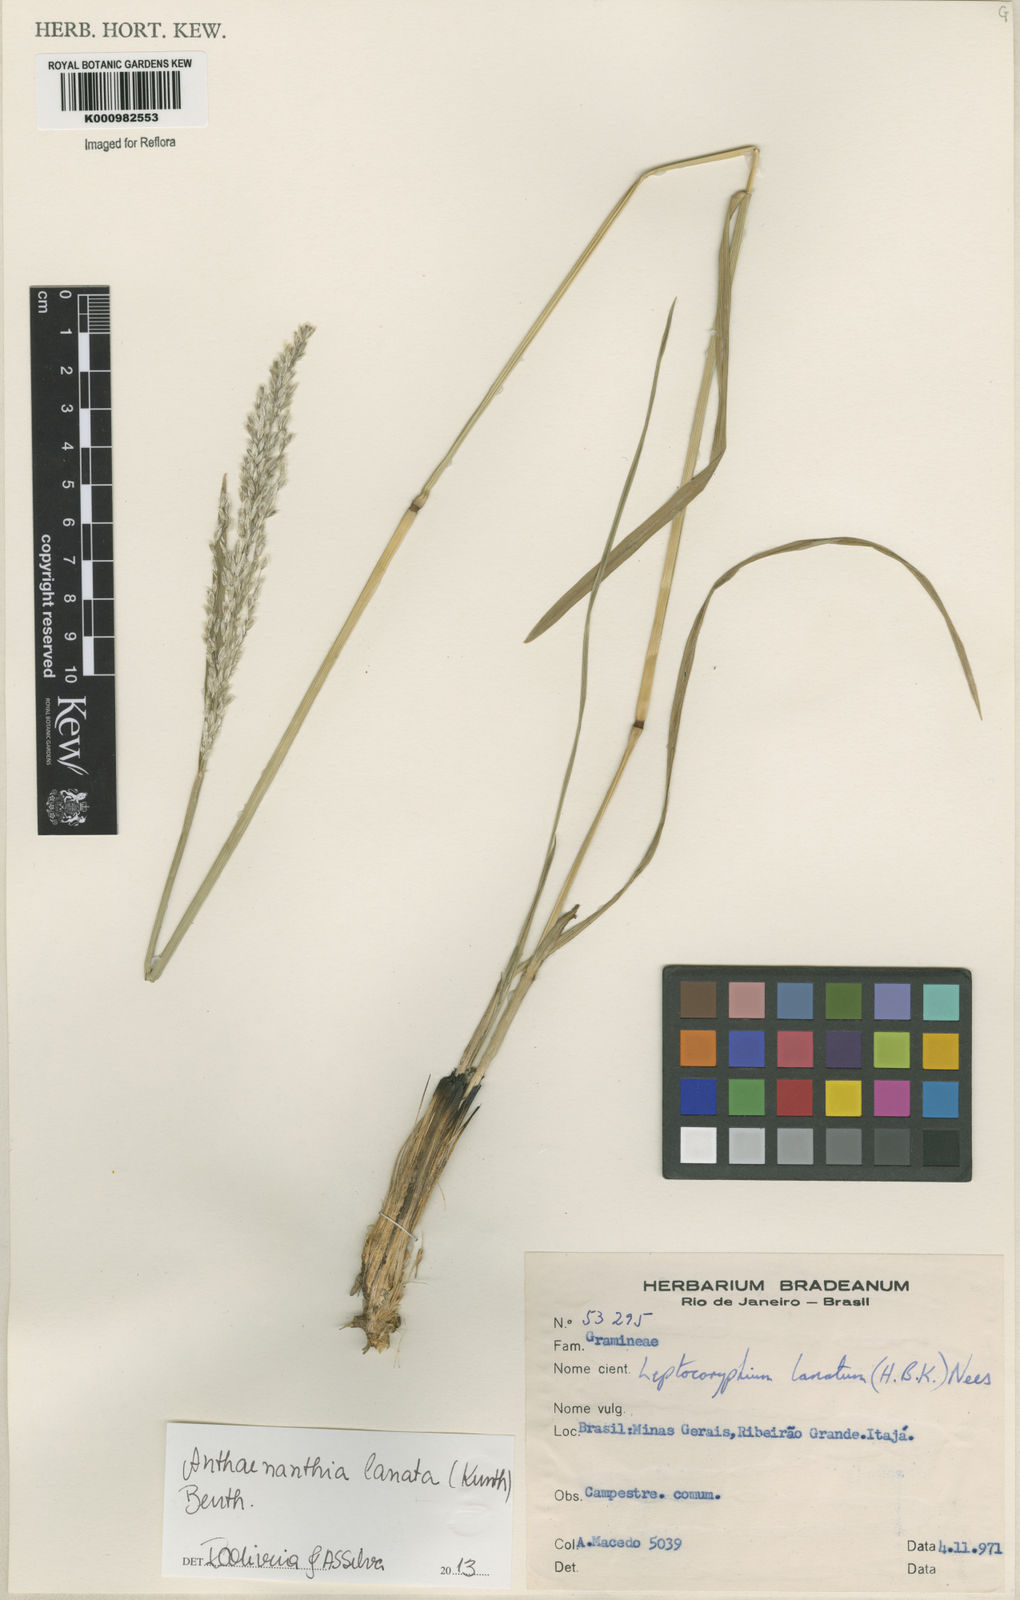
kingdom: Plantae
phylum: Tracheophyta
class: Liliopsida
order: Poales
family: Poaceae
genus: Anthenantia
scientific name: Anthenantia lanata
